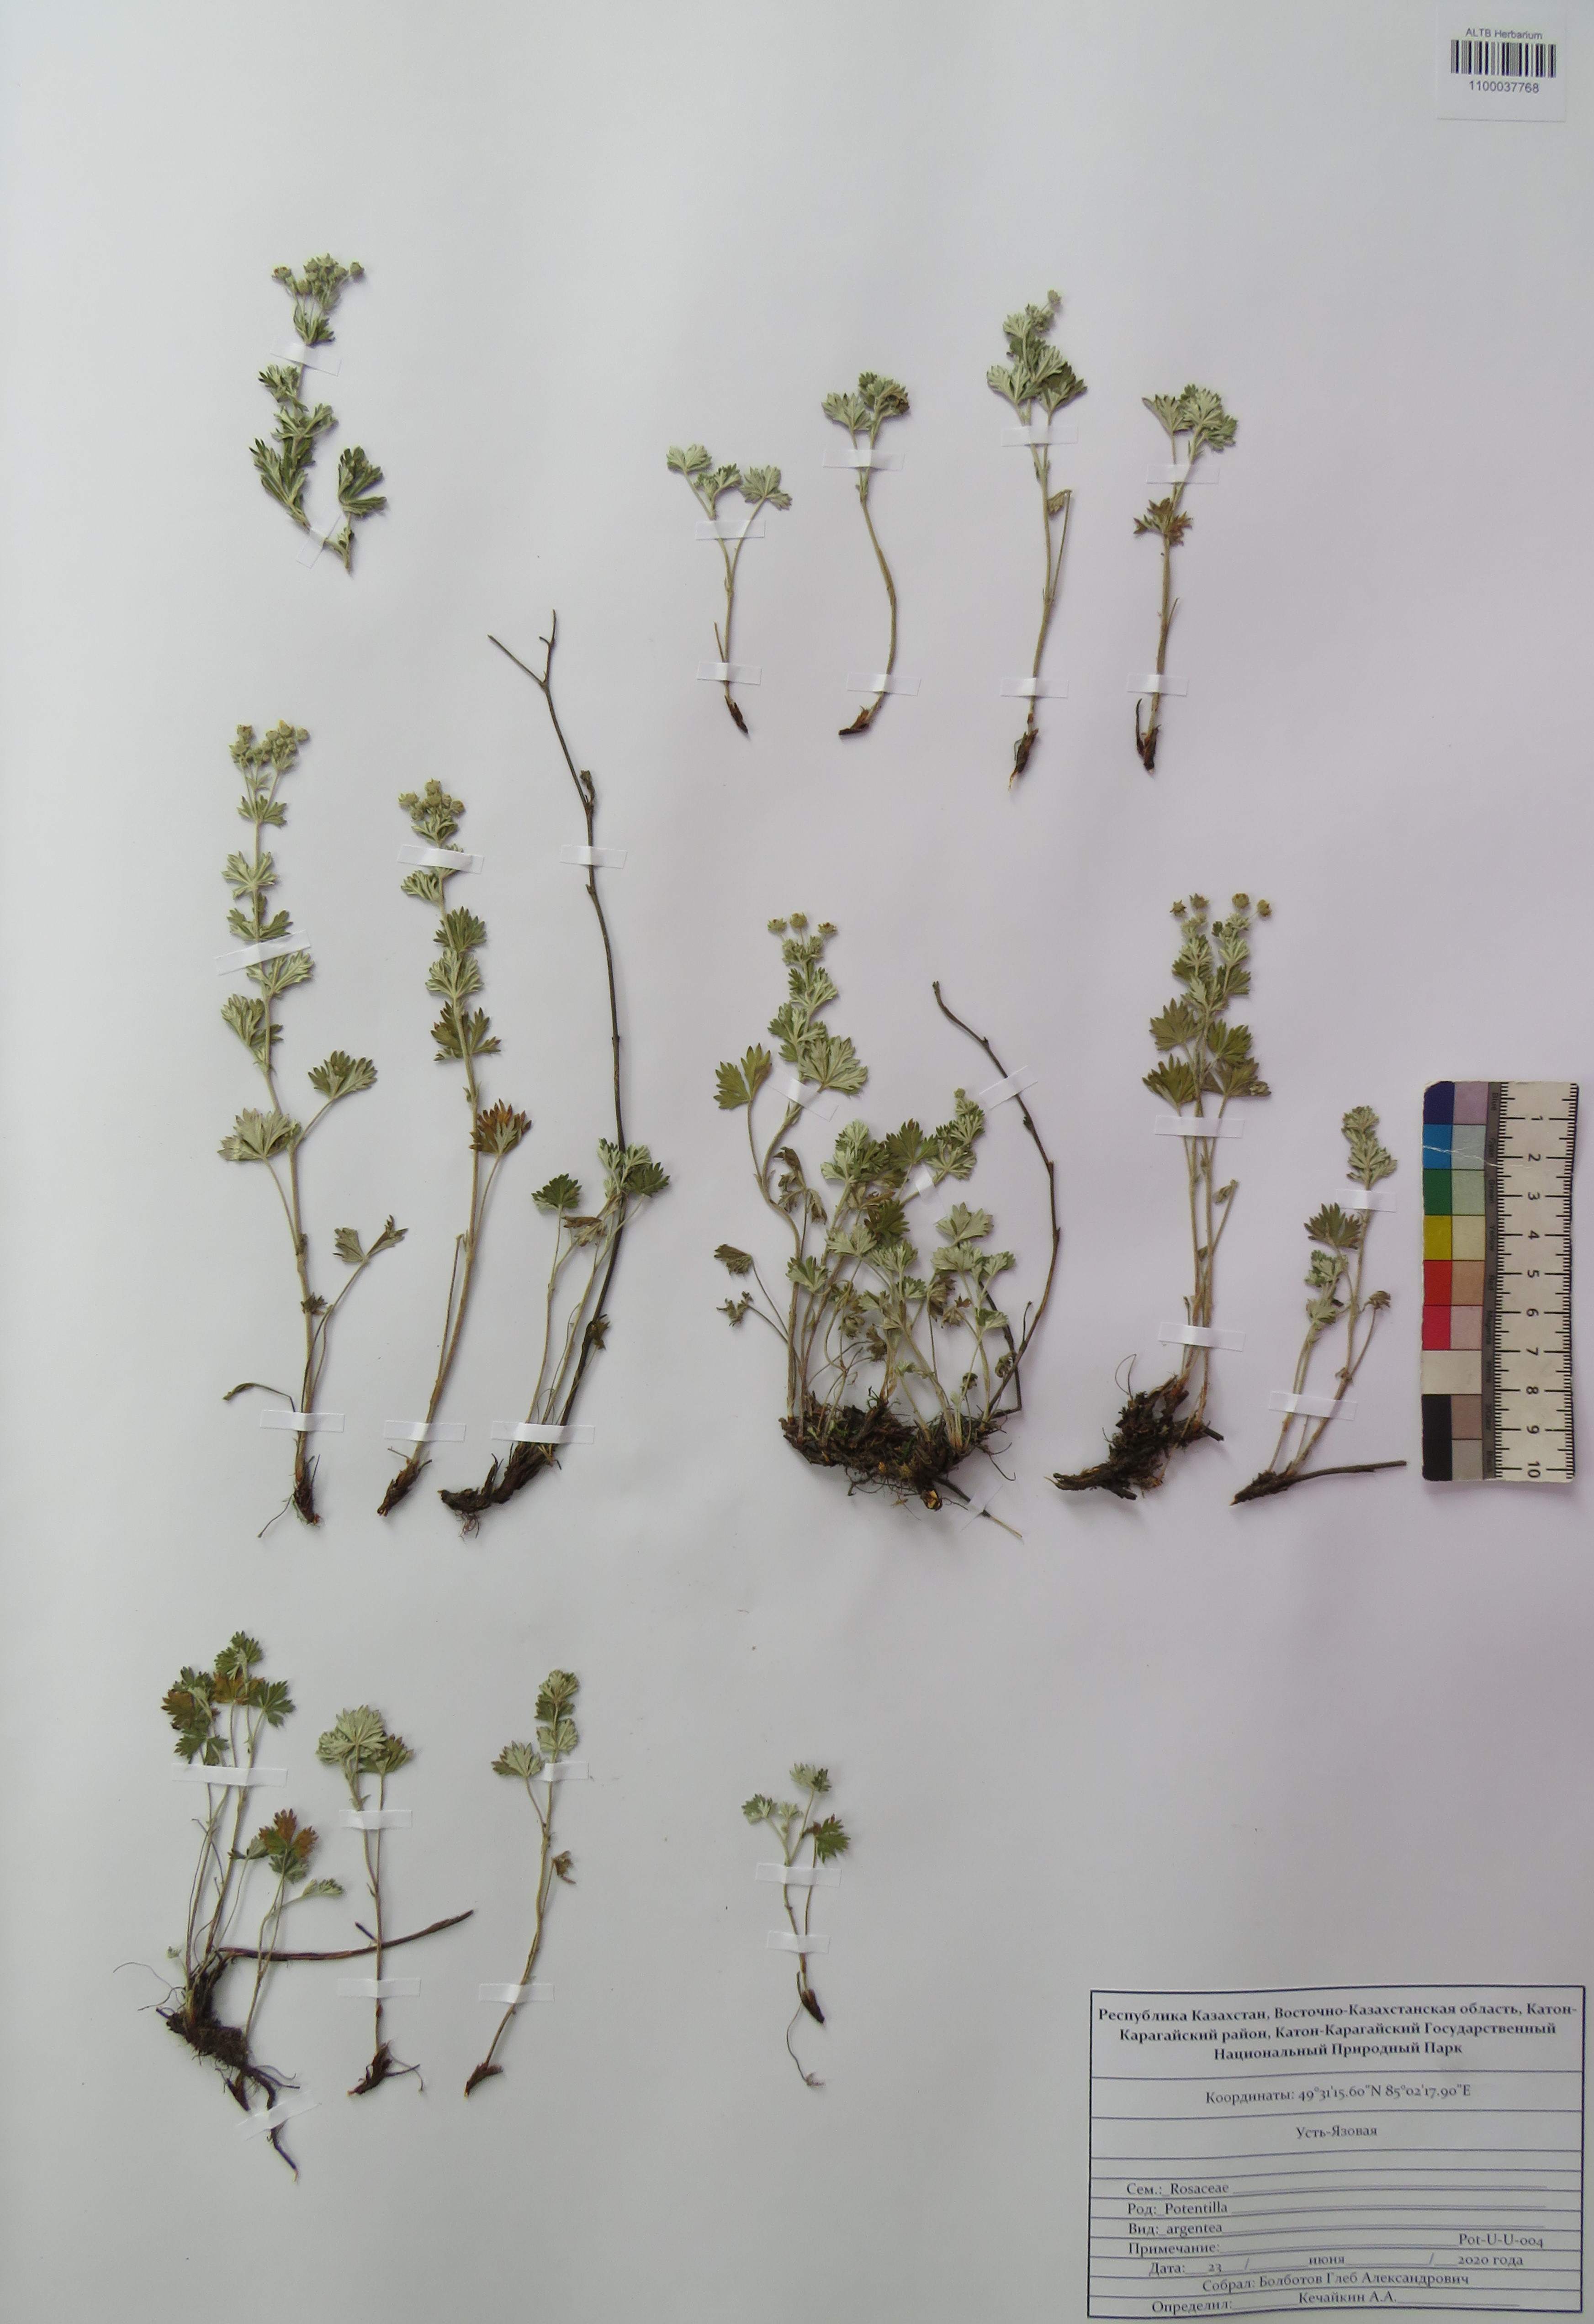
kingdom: Plantae
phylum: Tracheophyta
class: Magnoliopsida
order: Rosales
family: Rosaceae
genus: Potentilla
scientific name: Potentilla argentea
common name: Hoary cinquefoil
